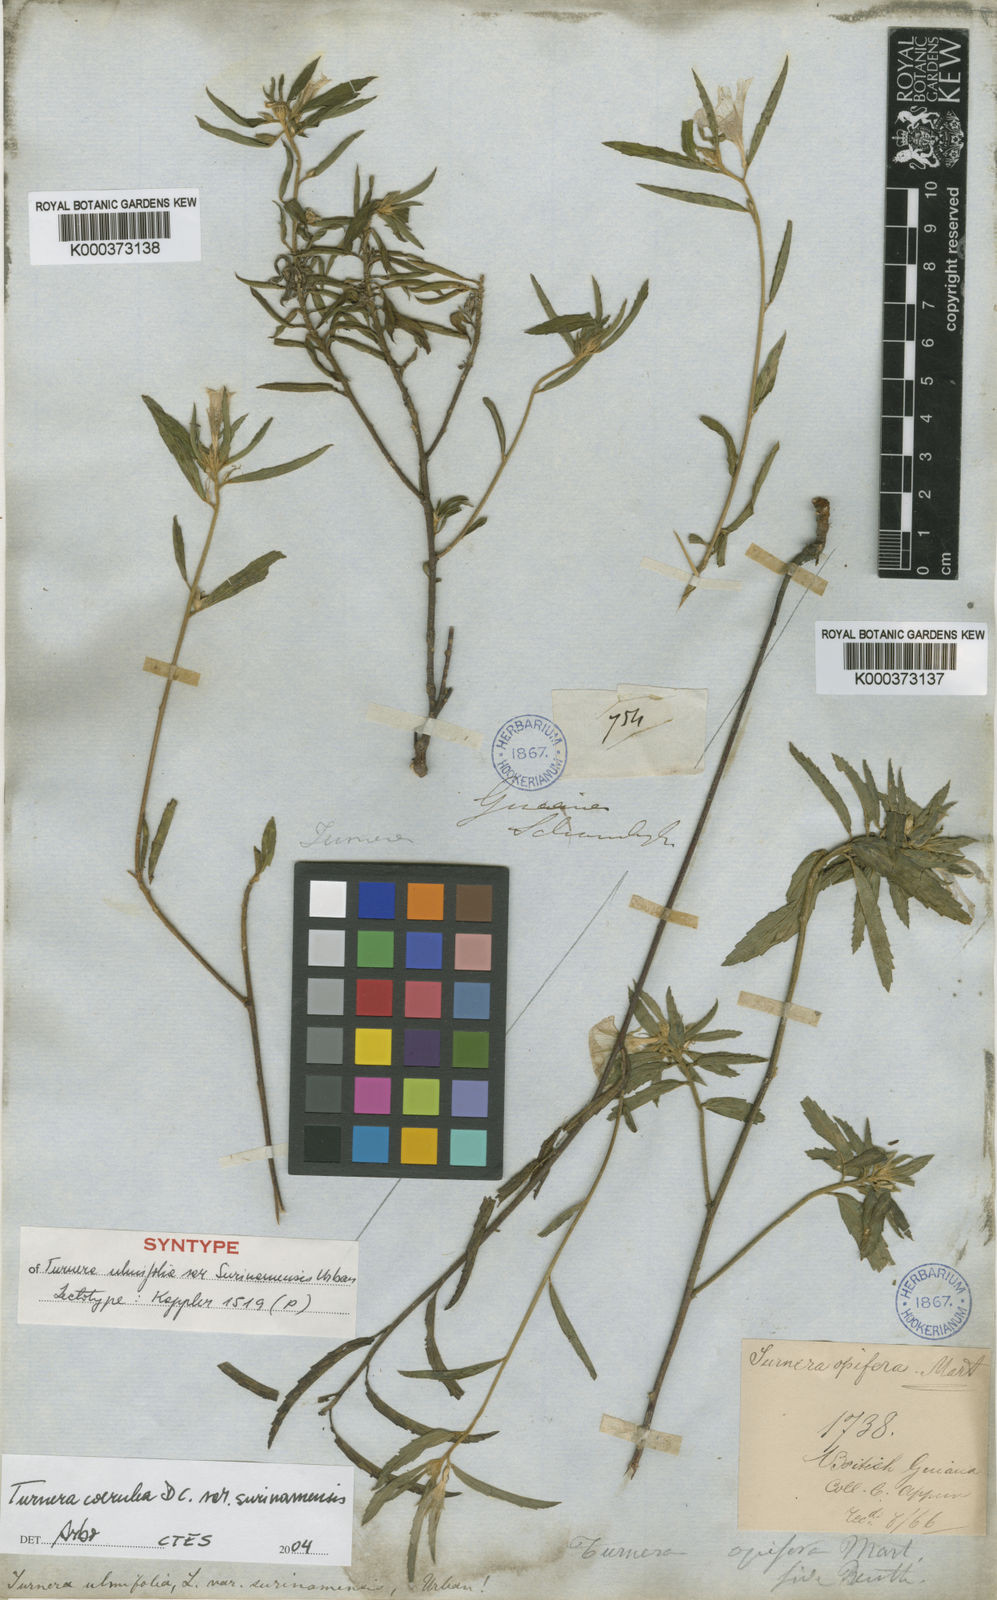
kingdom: Plantae
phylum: Tracheophyta
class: Magnoliopsida
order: Malpighiales
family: Turneraceae
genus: Turnera
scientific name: Turnera coerulea
